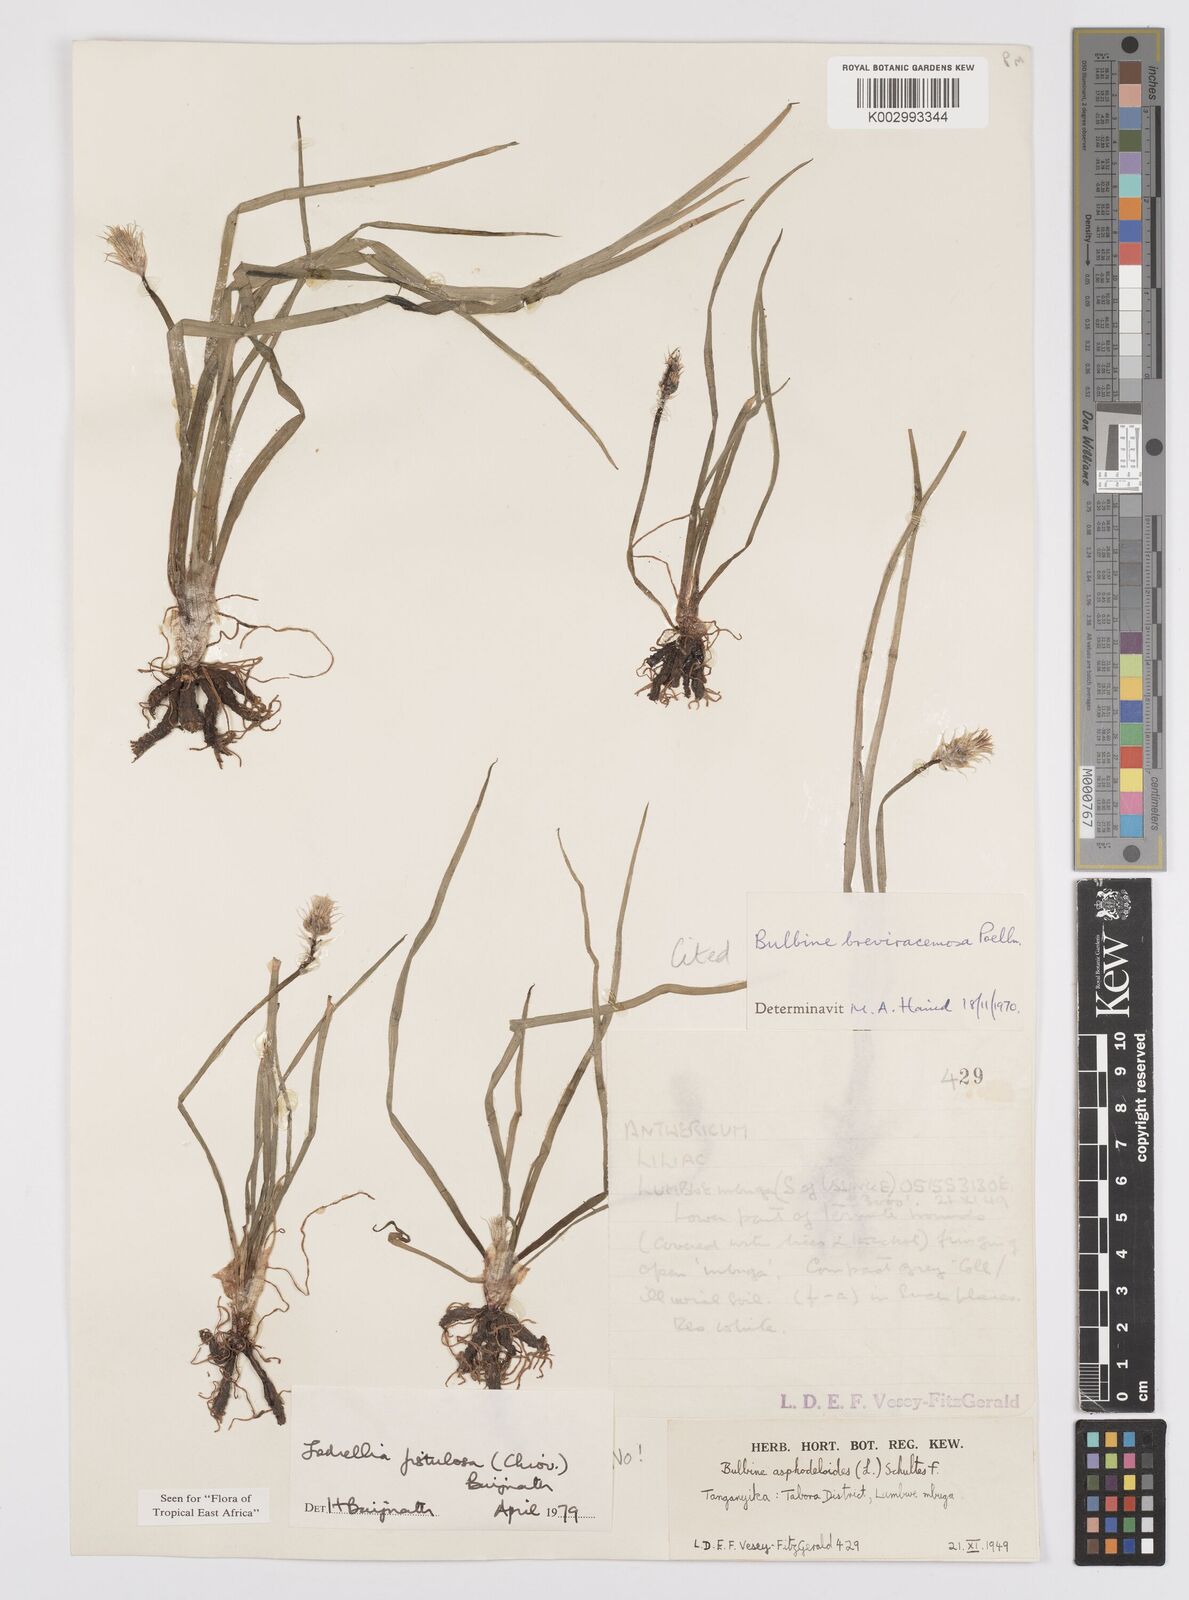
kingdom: Plantae
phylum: Tracheophyta
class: Liliopsida
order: Asparagales
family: Asphodelaceae
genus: Bulbine
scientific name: Bulbine fistulosa
